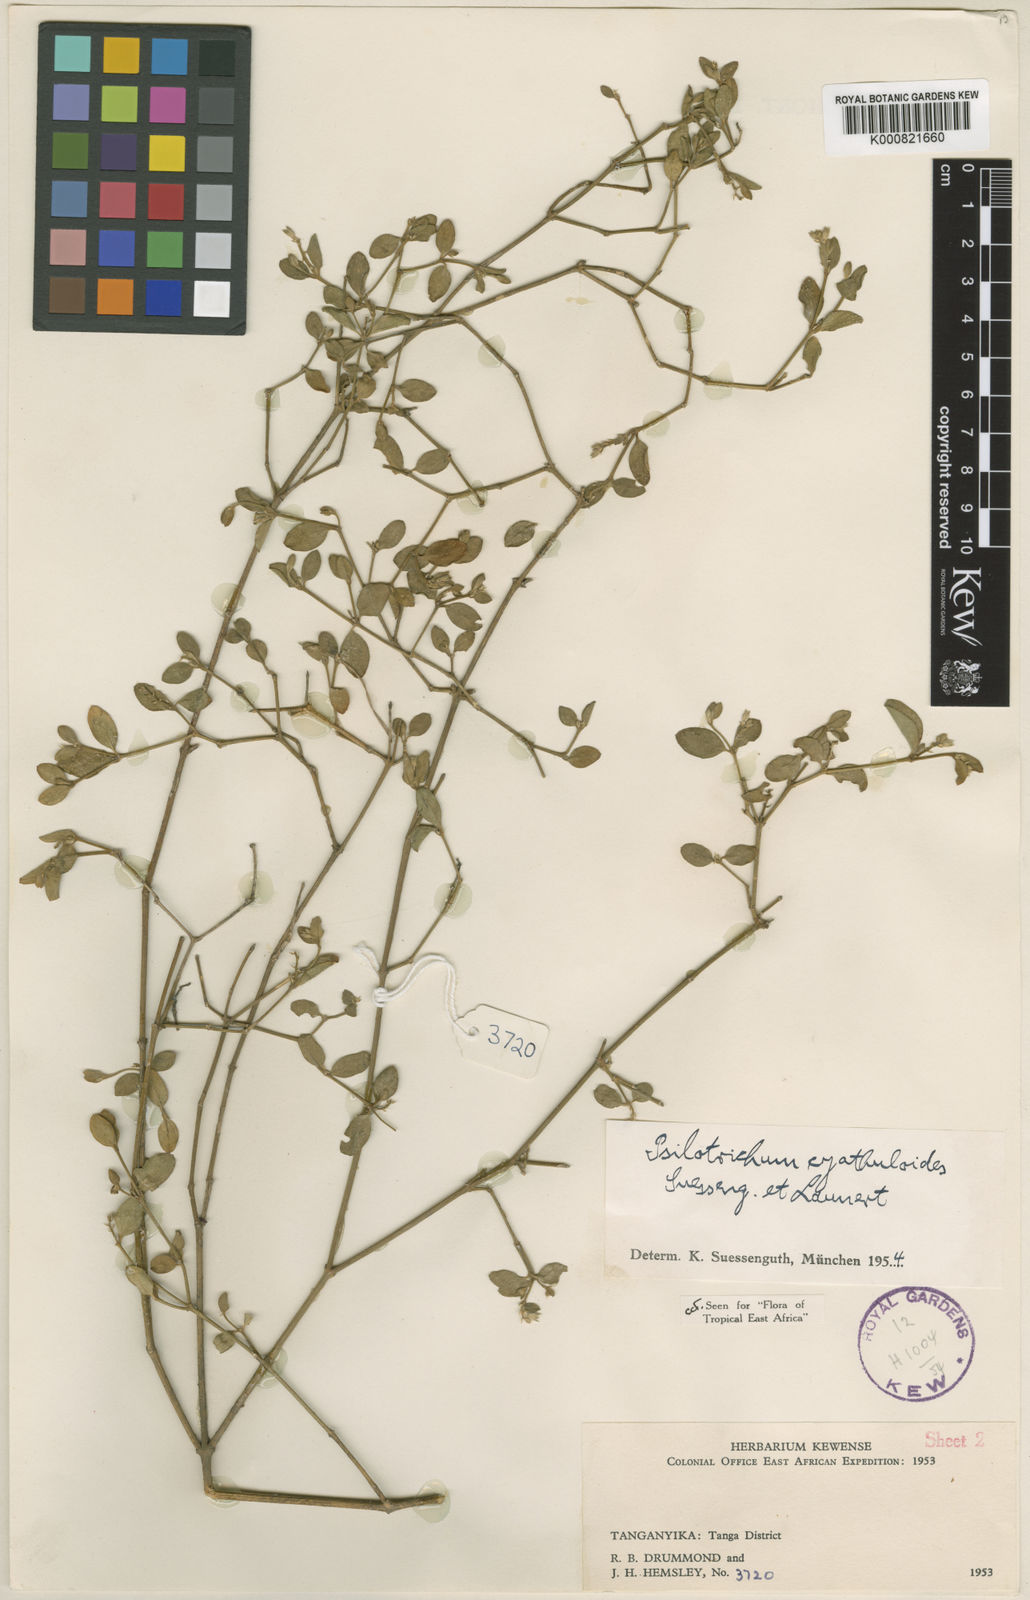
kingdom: Plantae
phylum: Tracheophyta
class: Magnoliopsida
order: Caryophyllales
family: Amaranthaceae
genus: Psilotrichum
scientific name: Psilotrichum cyathuloides
